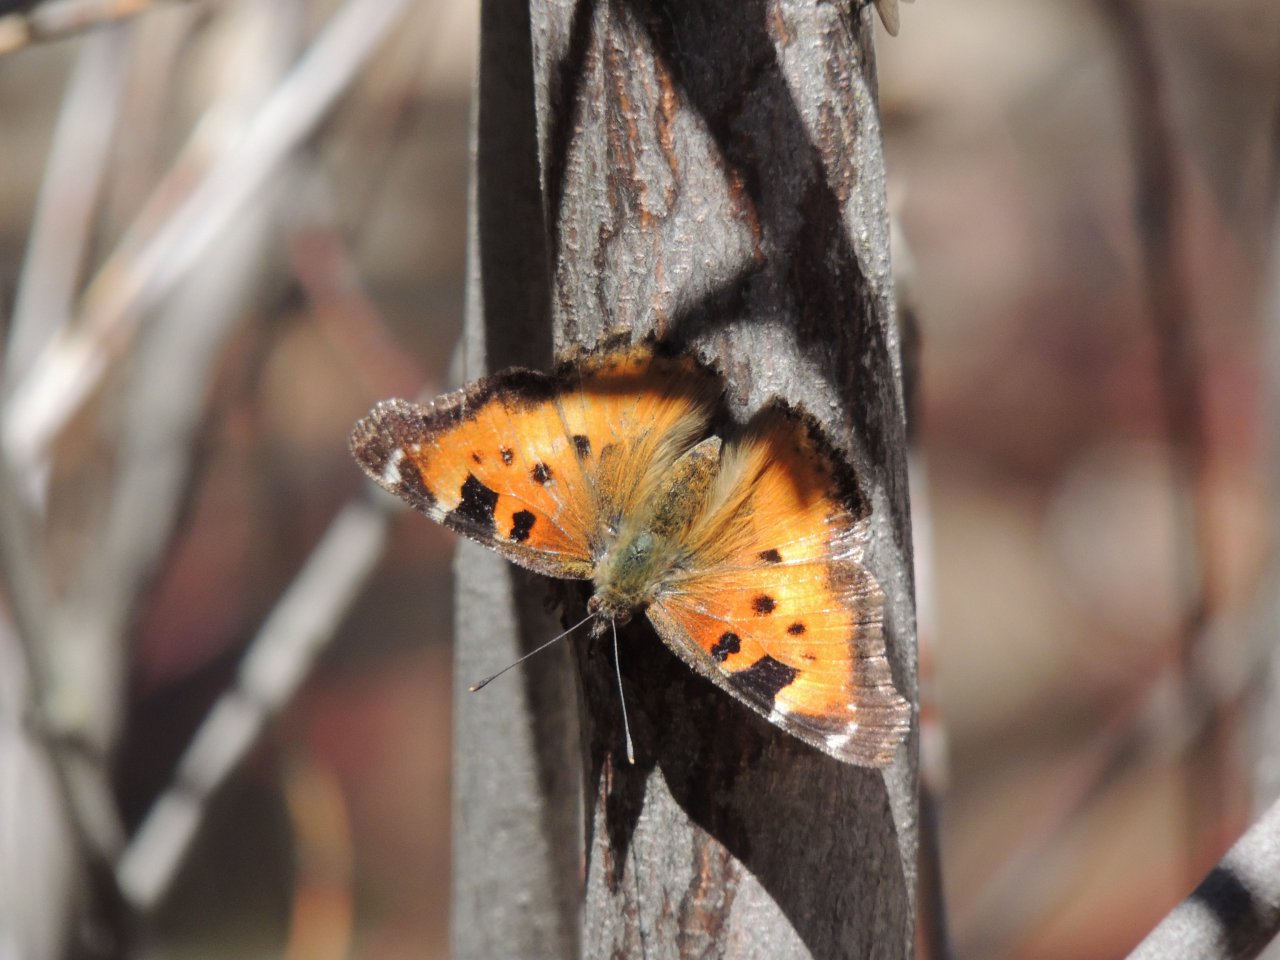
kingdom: Animalia
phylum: Arthropoda
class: Insecta
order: Lepidoptera
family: Nymphalidae
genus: Nymphalis
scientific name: Nymphalis californica
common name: California Tortoiseshell
